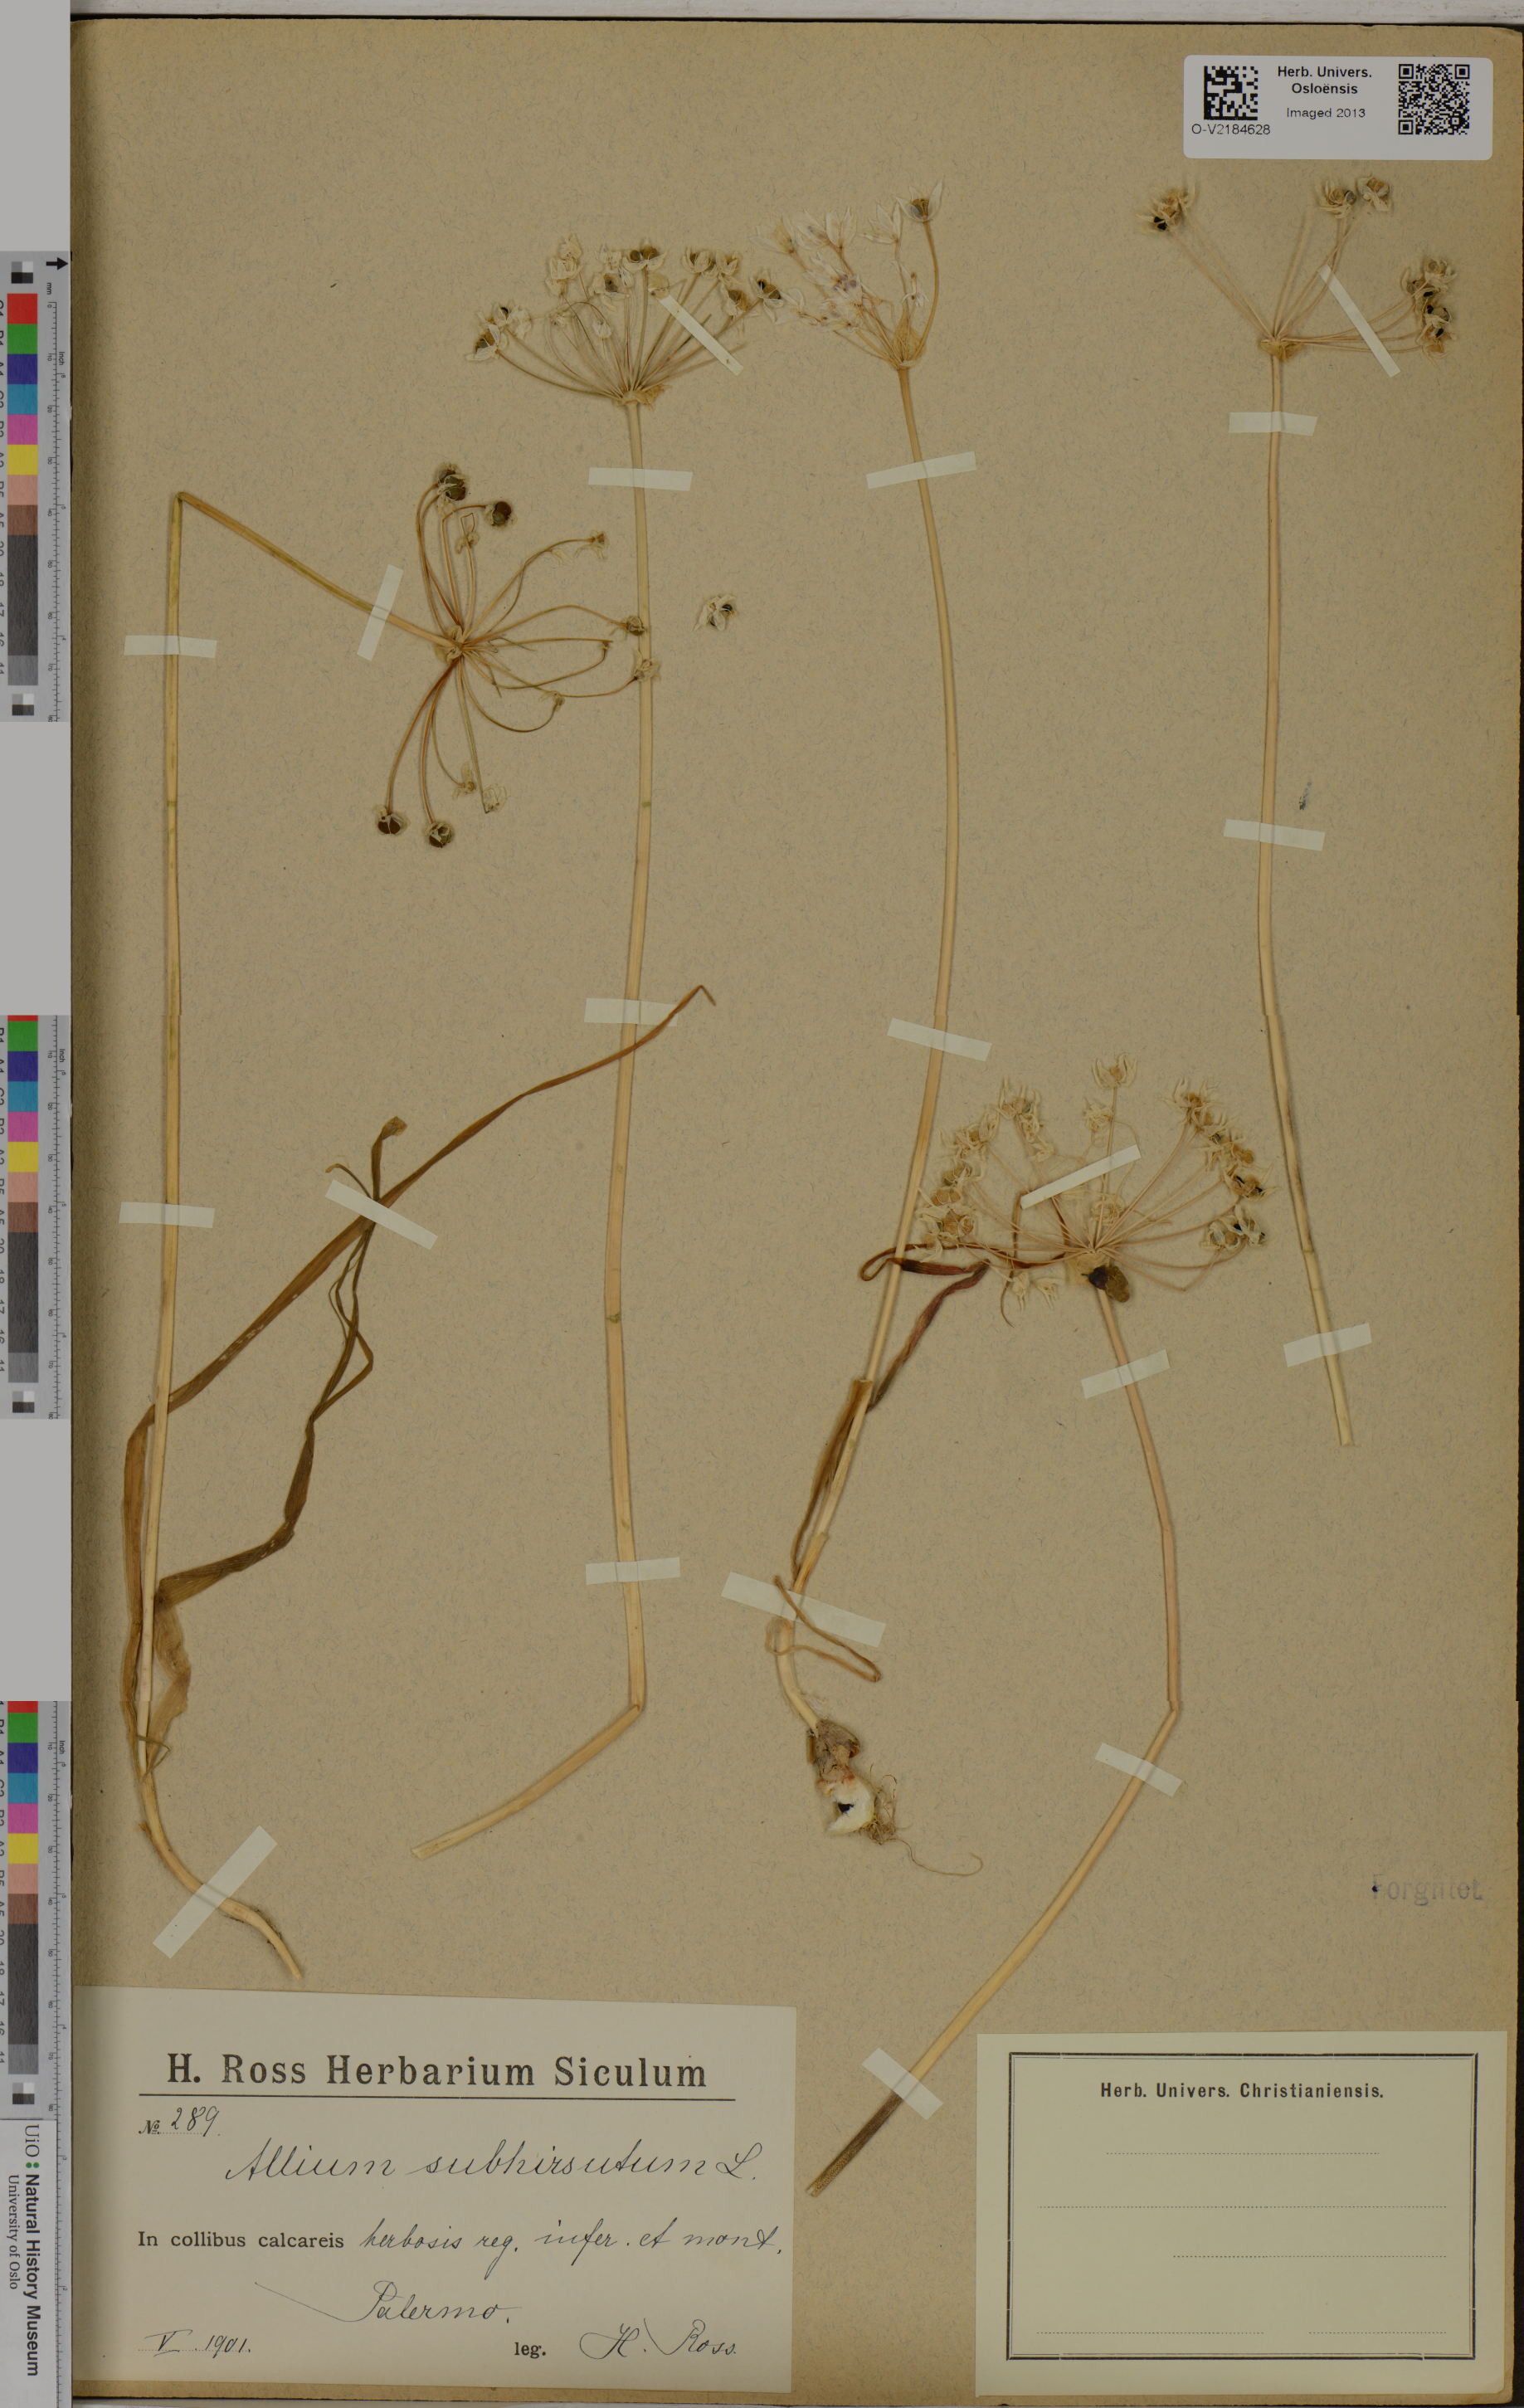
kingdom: Plantae
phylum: Tracheophyta
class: Liliopsida
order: Asparagales
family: Amaryllidaceae
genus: Allium
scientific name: Allium subhirsutum
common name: Hairy garlic
